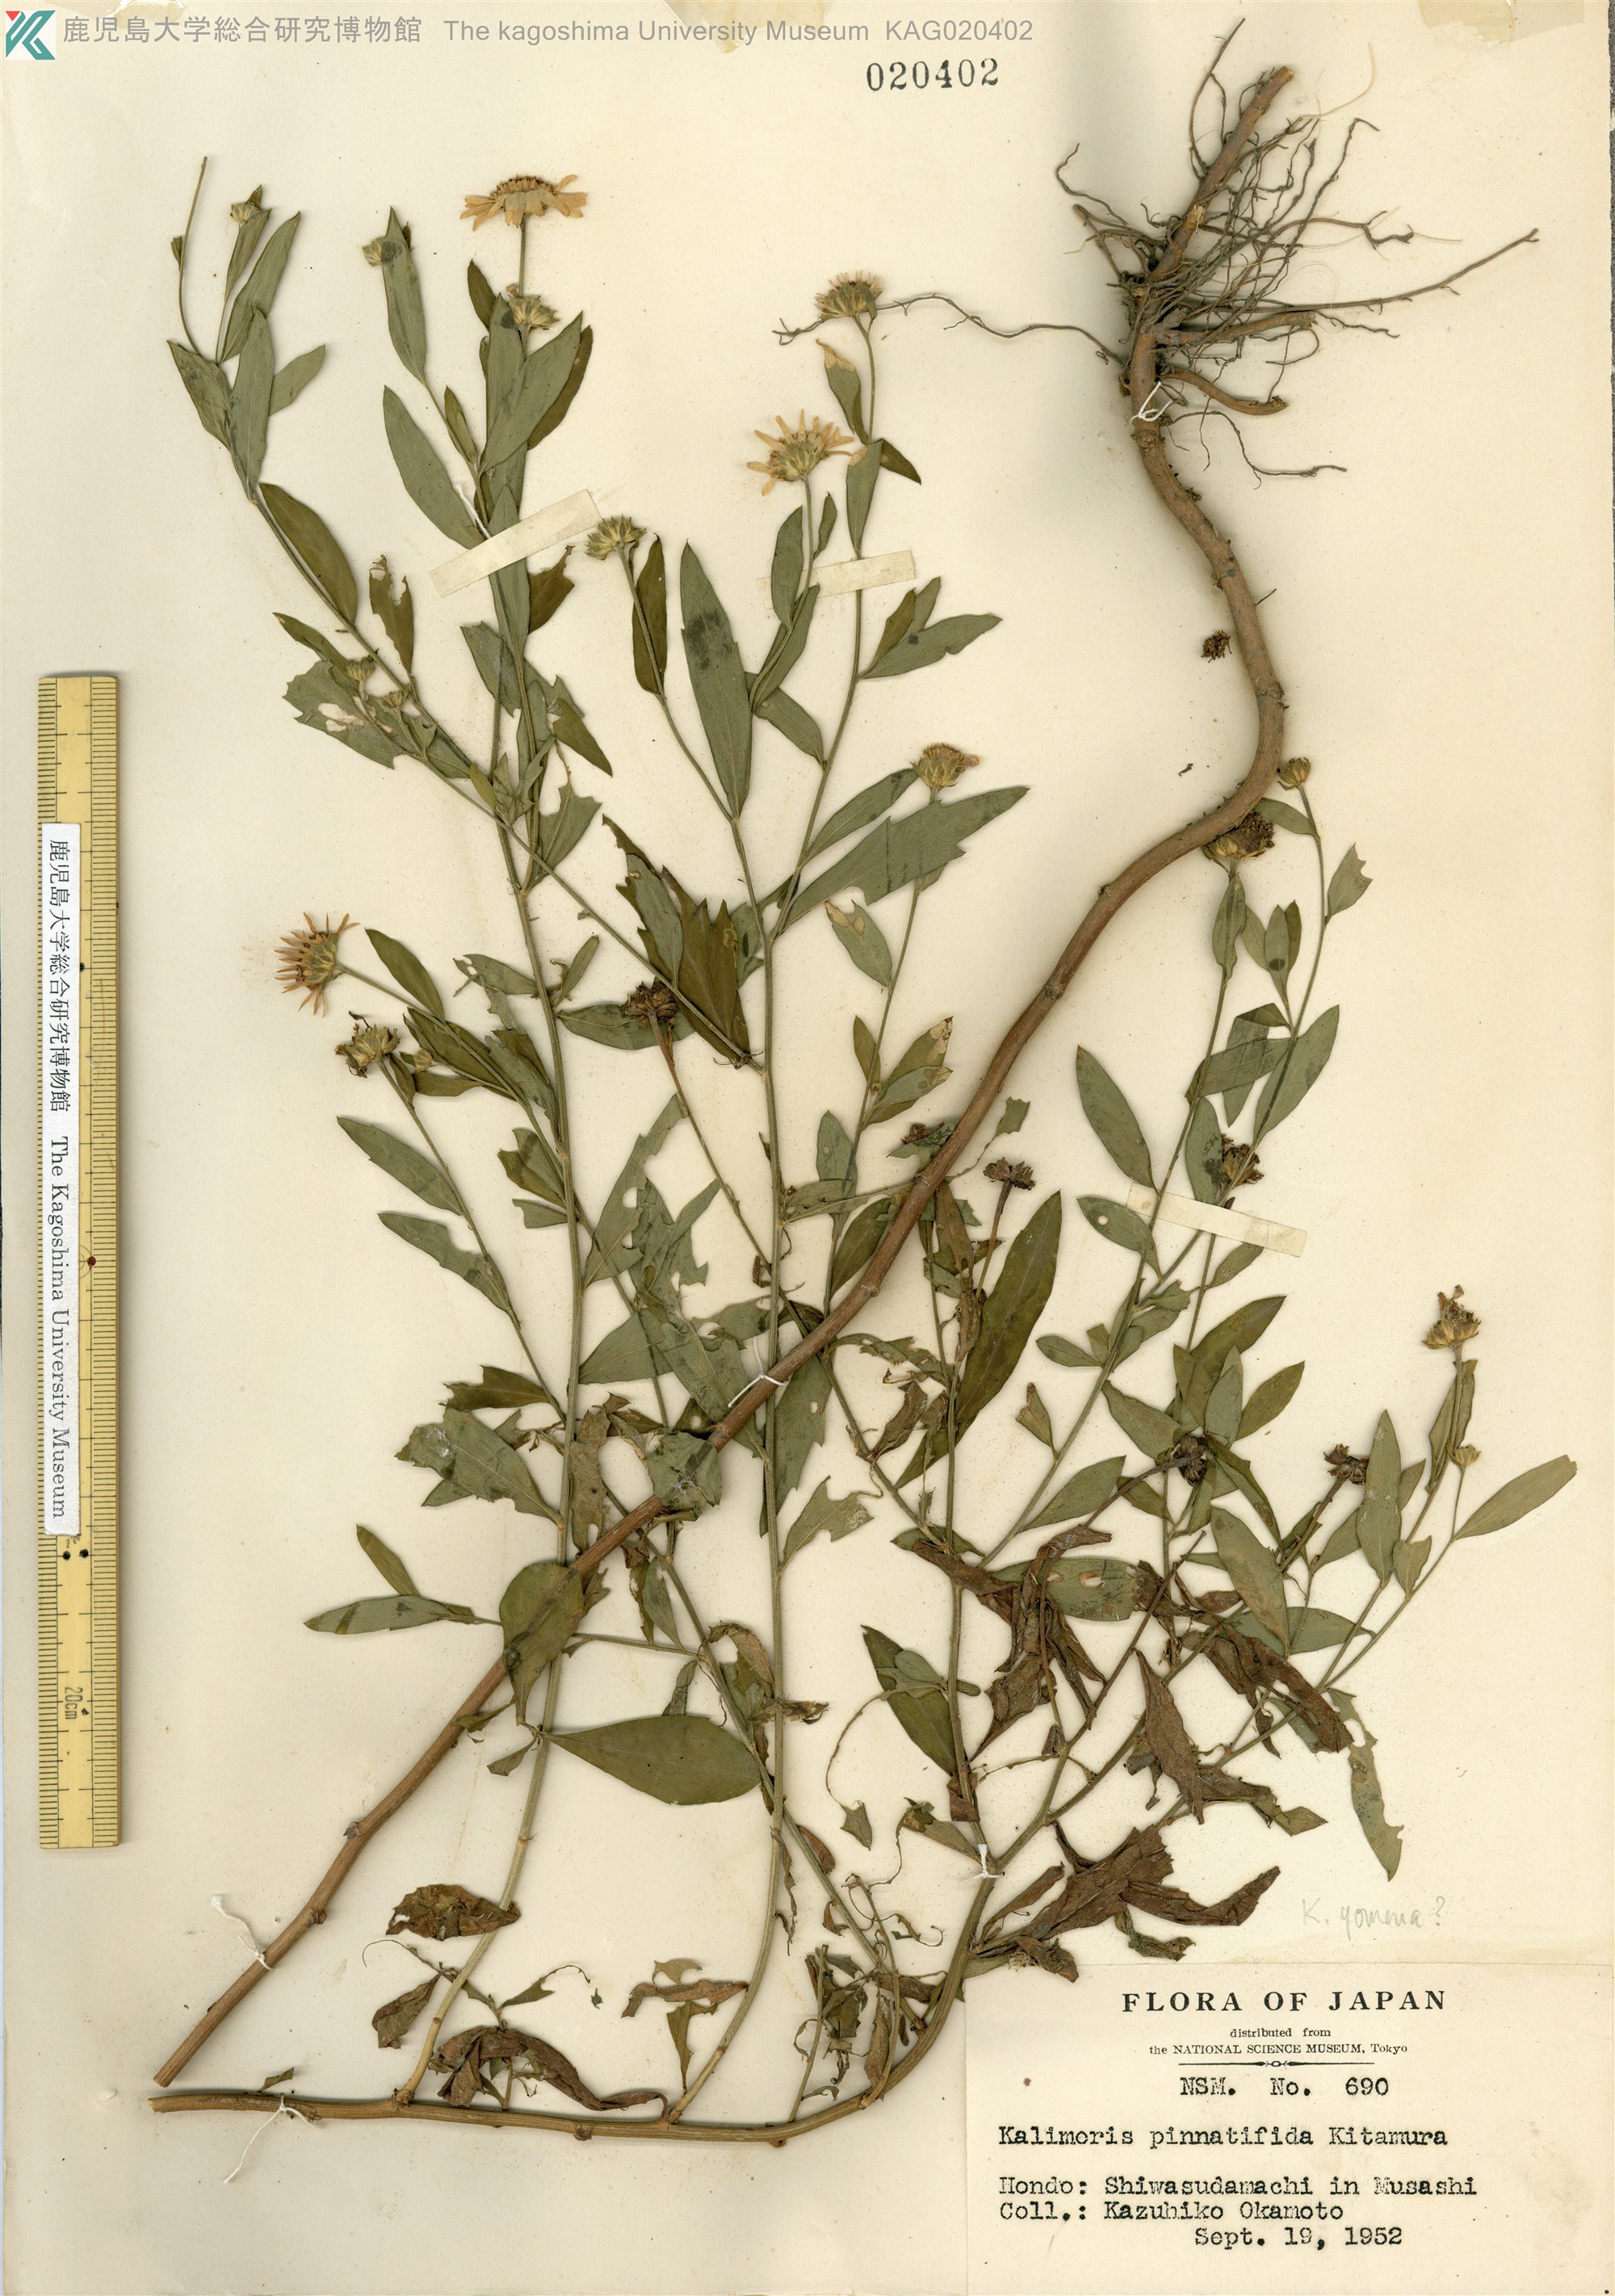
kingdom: Plantae
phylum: Tracheophyta
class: Magnoliopsida
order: Asterales
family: Asteraceae
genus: Kalimeris
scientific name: Kalimeris pinnatifida
